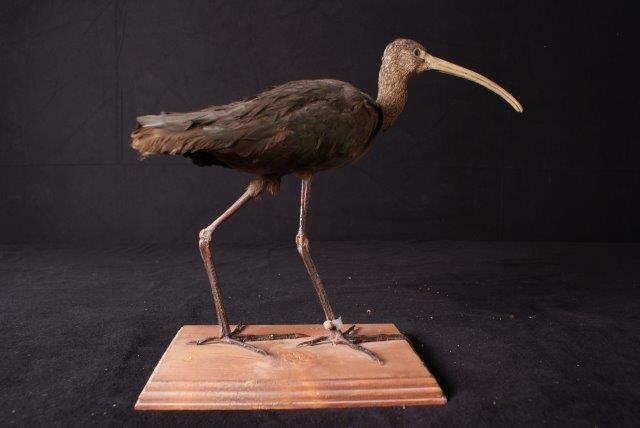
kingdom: Animalia
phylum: Chordata
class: Aves
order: Pelecaniformes
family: Threskiornithidae
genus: Plegadis
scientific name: Plegadis falcinellus
